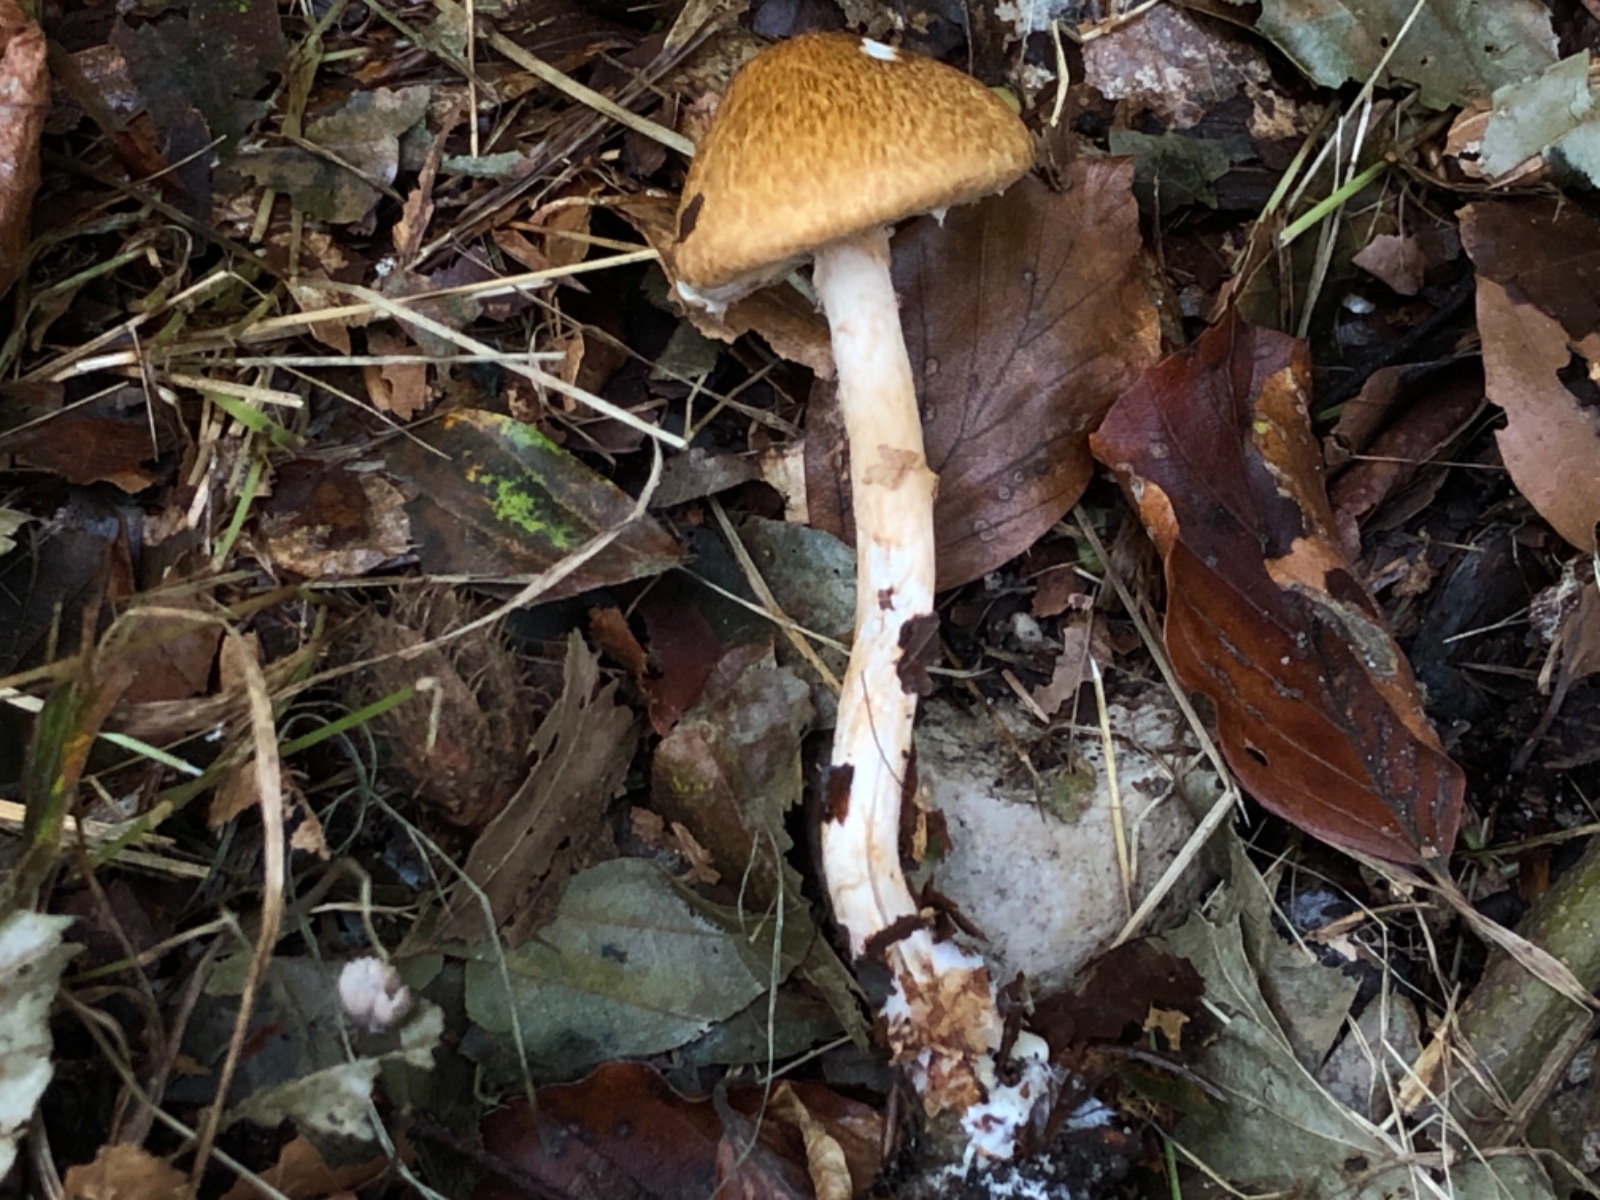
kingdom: Fungi
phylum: Basidiomycota
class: Agaricomycetes
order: Agaricales
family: Agaricaceae
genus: Leucocoprinus
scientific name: Leucocoprinus straminellus
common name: rustbrun parasolhat
